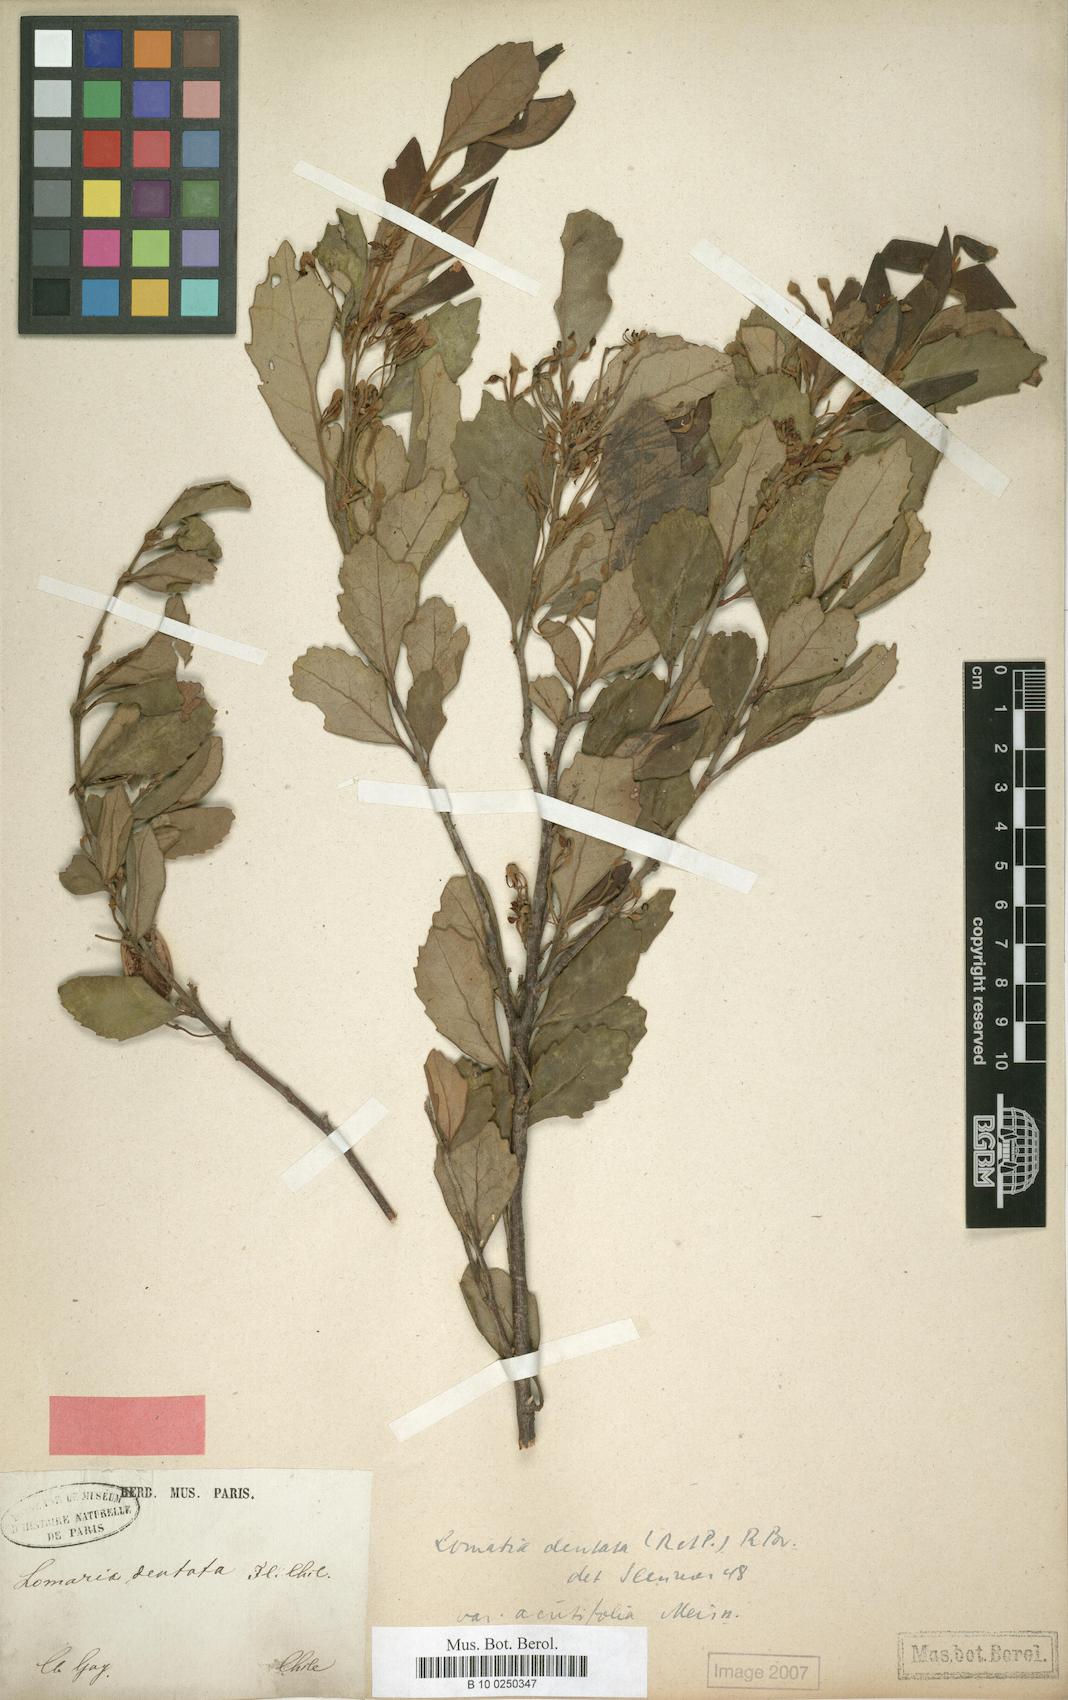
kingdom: Plantae
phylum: Tracheophyta
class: Magnoliopsida
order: Proteales
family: Proteaceae
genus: Lomatia
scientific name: Lomatia dentata
